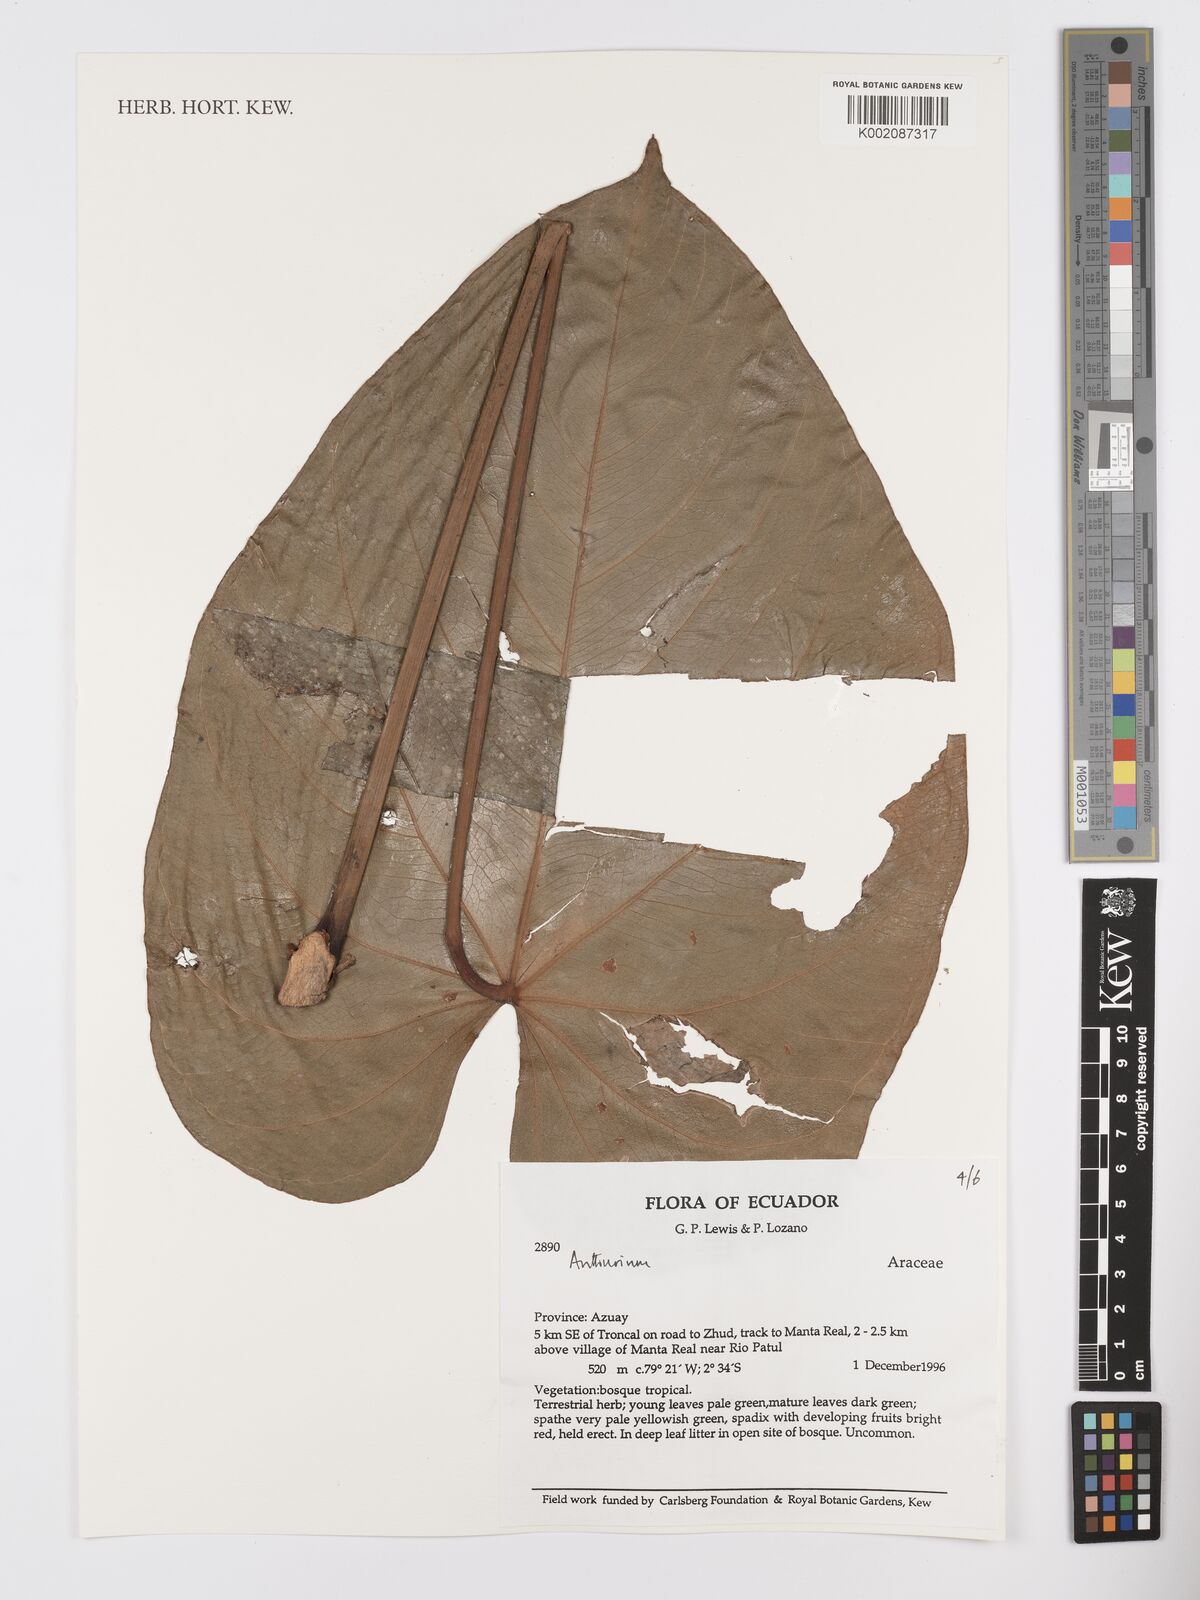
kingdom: Plantae
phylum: Tracheophyta
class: Liliopsida
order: Alismatales
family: Araceae
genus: Anthurium
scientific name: Anthurium
